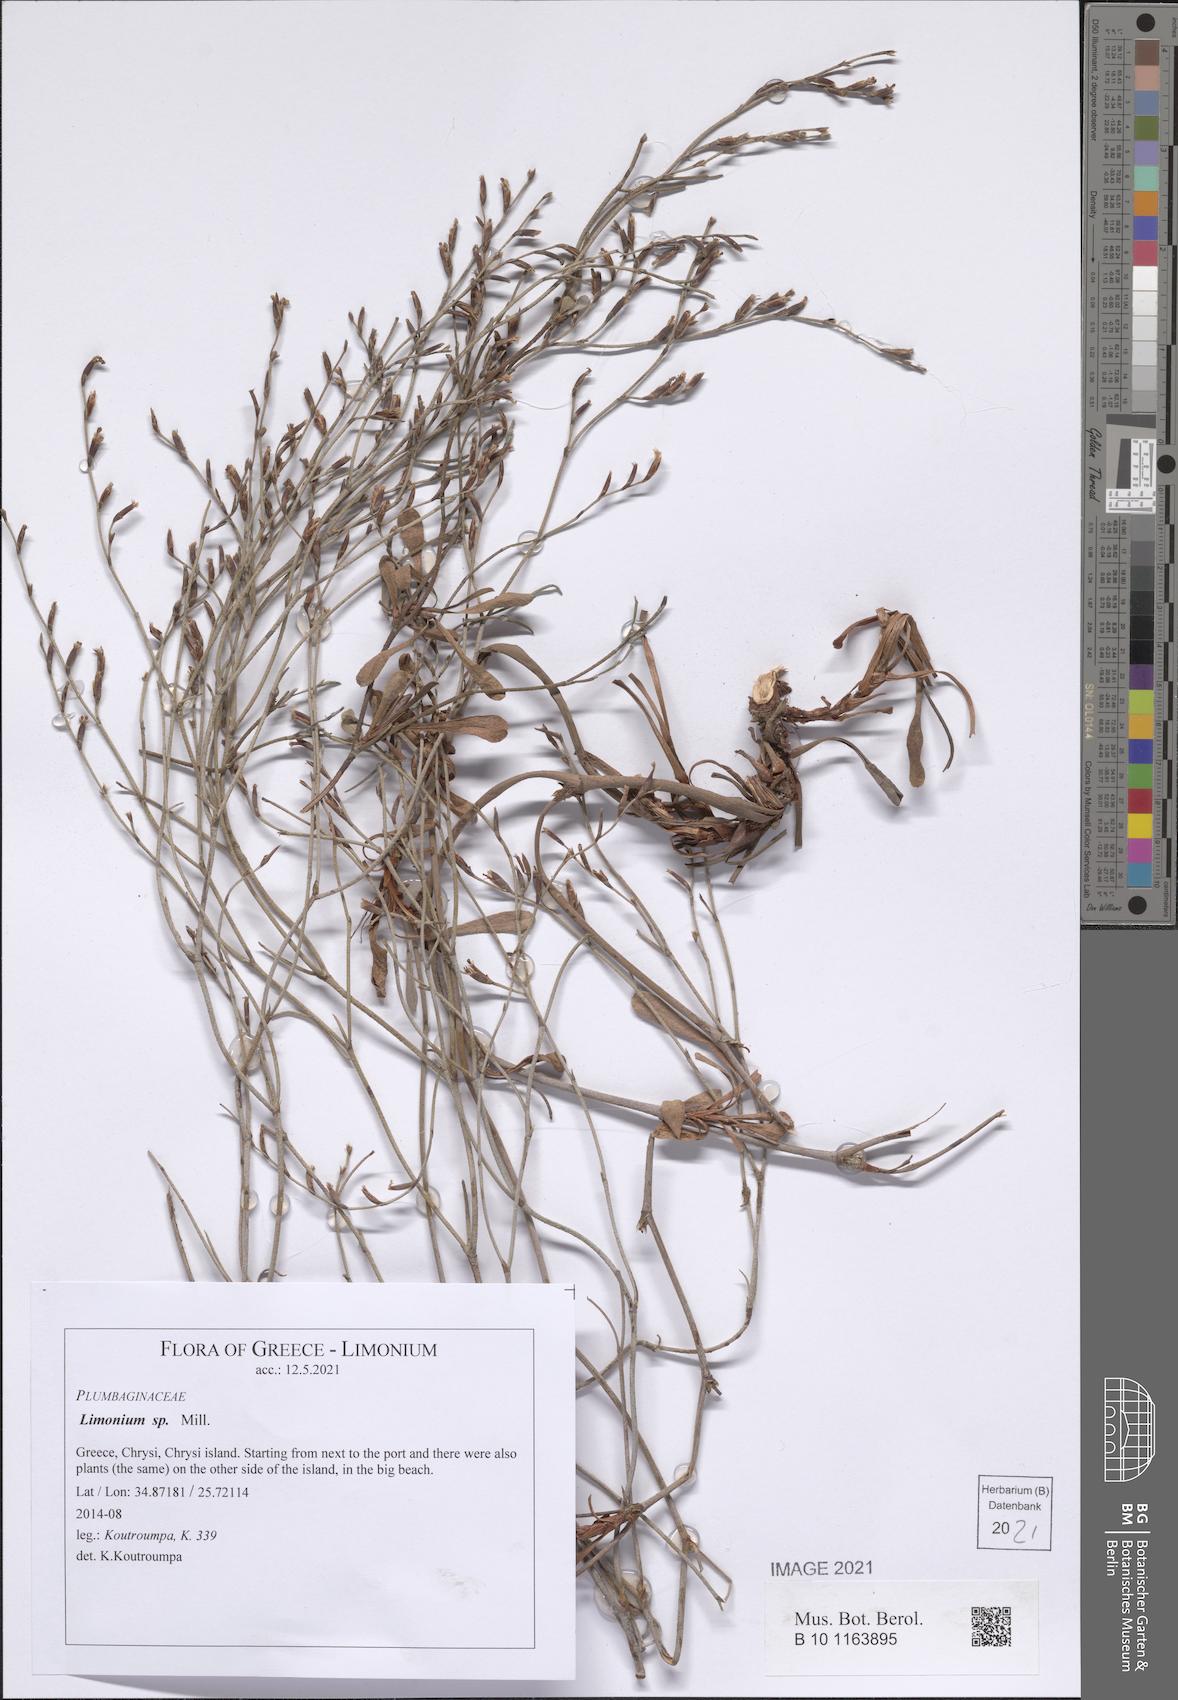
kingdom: Plantae
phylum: Tracheophyta
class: Magnoliopsida
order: Caryophyllales
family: Plumbaginaceae
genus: Limonium
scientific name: Limonium
